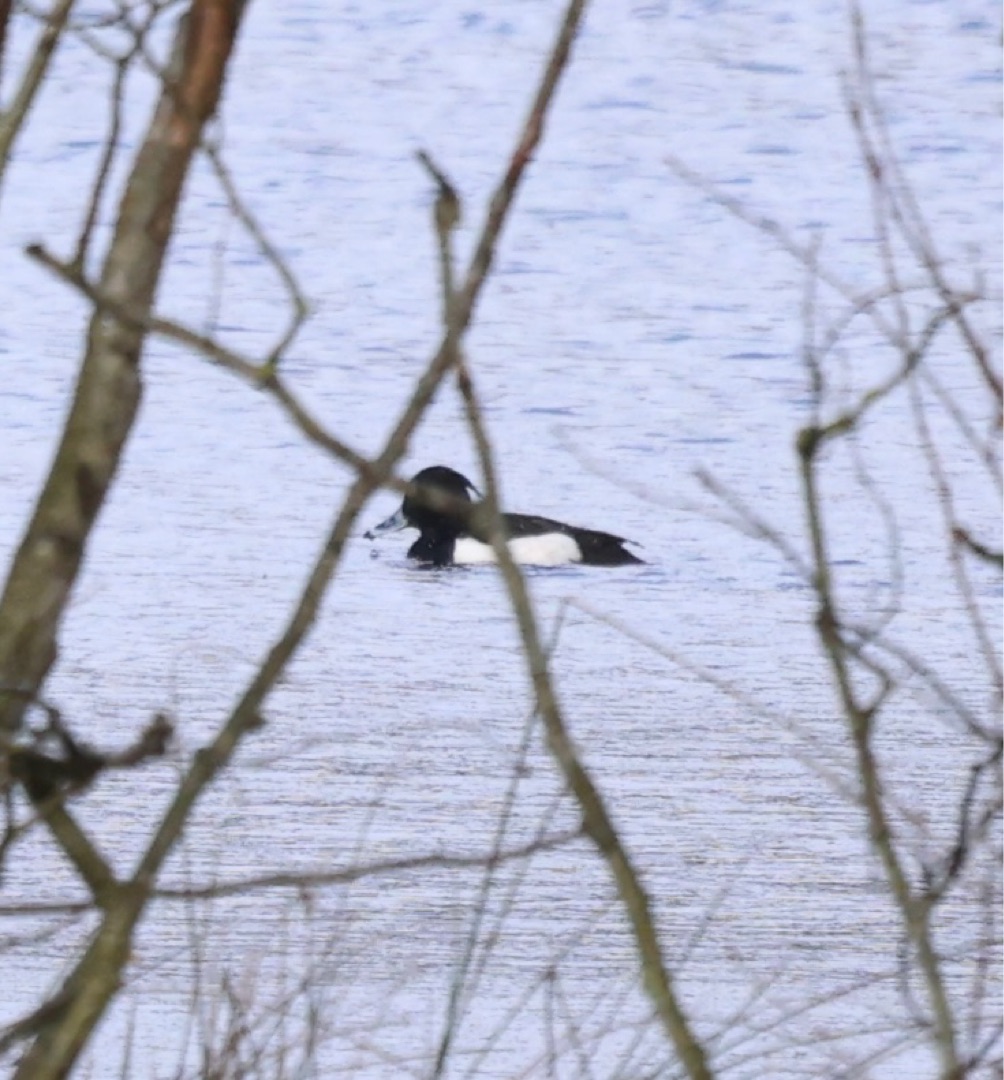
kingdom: Animalia
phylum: Chordata
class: Aves
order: Anseriformes
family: Anatidae
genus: Aythya
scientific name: Aythya fuligula
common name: Troldand
